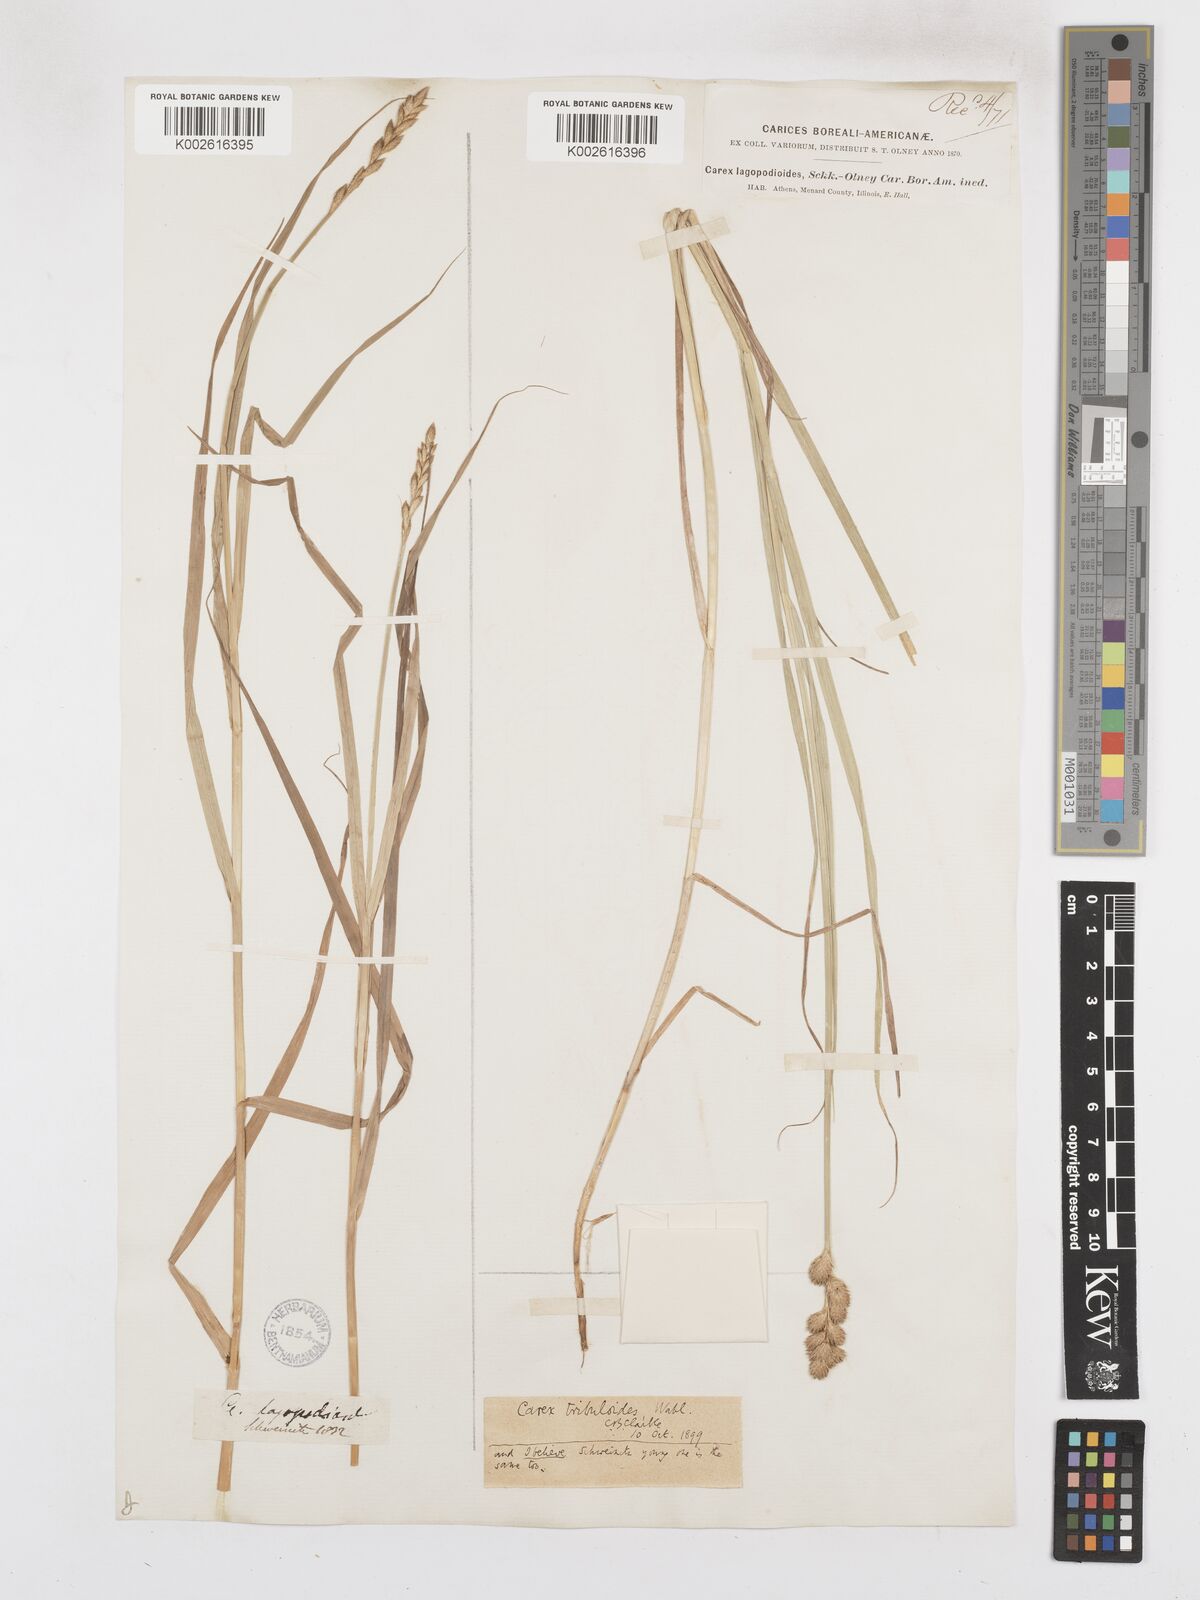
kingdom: Plantae
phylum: Tracheophyta
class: Liliopsida
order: Poales
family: Cyperaceae
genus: Carex
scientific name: Carex tribuloides
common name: Blunt broom sedge
